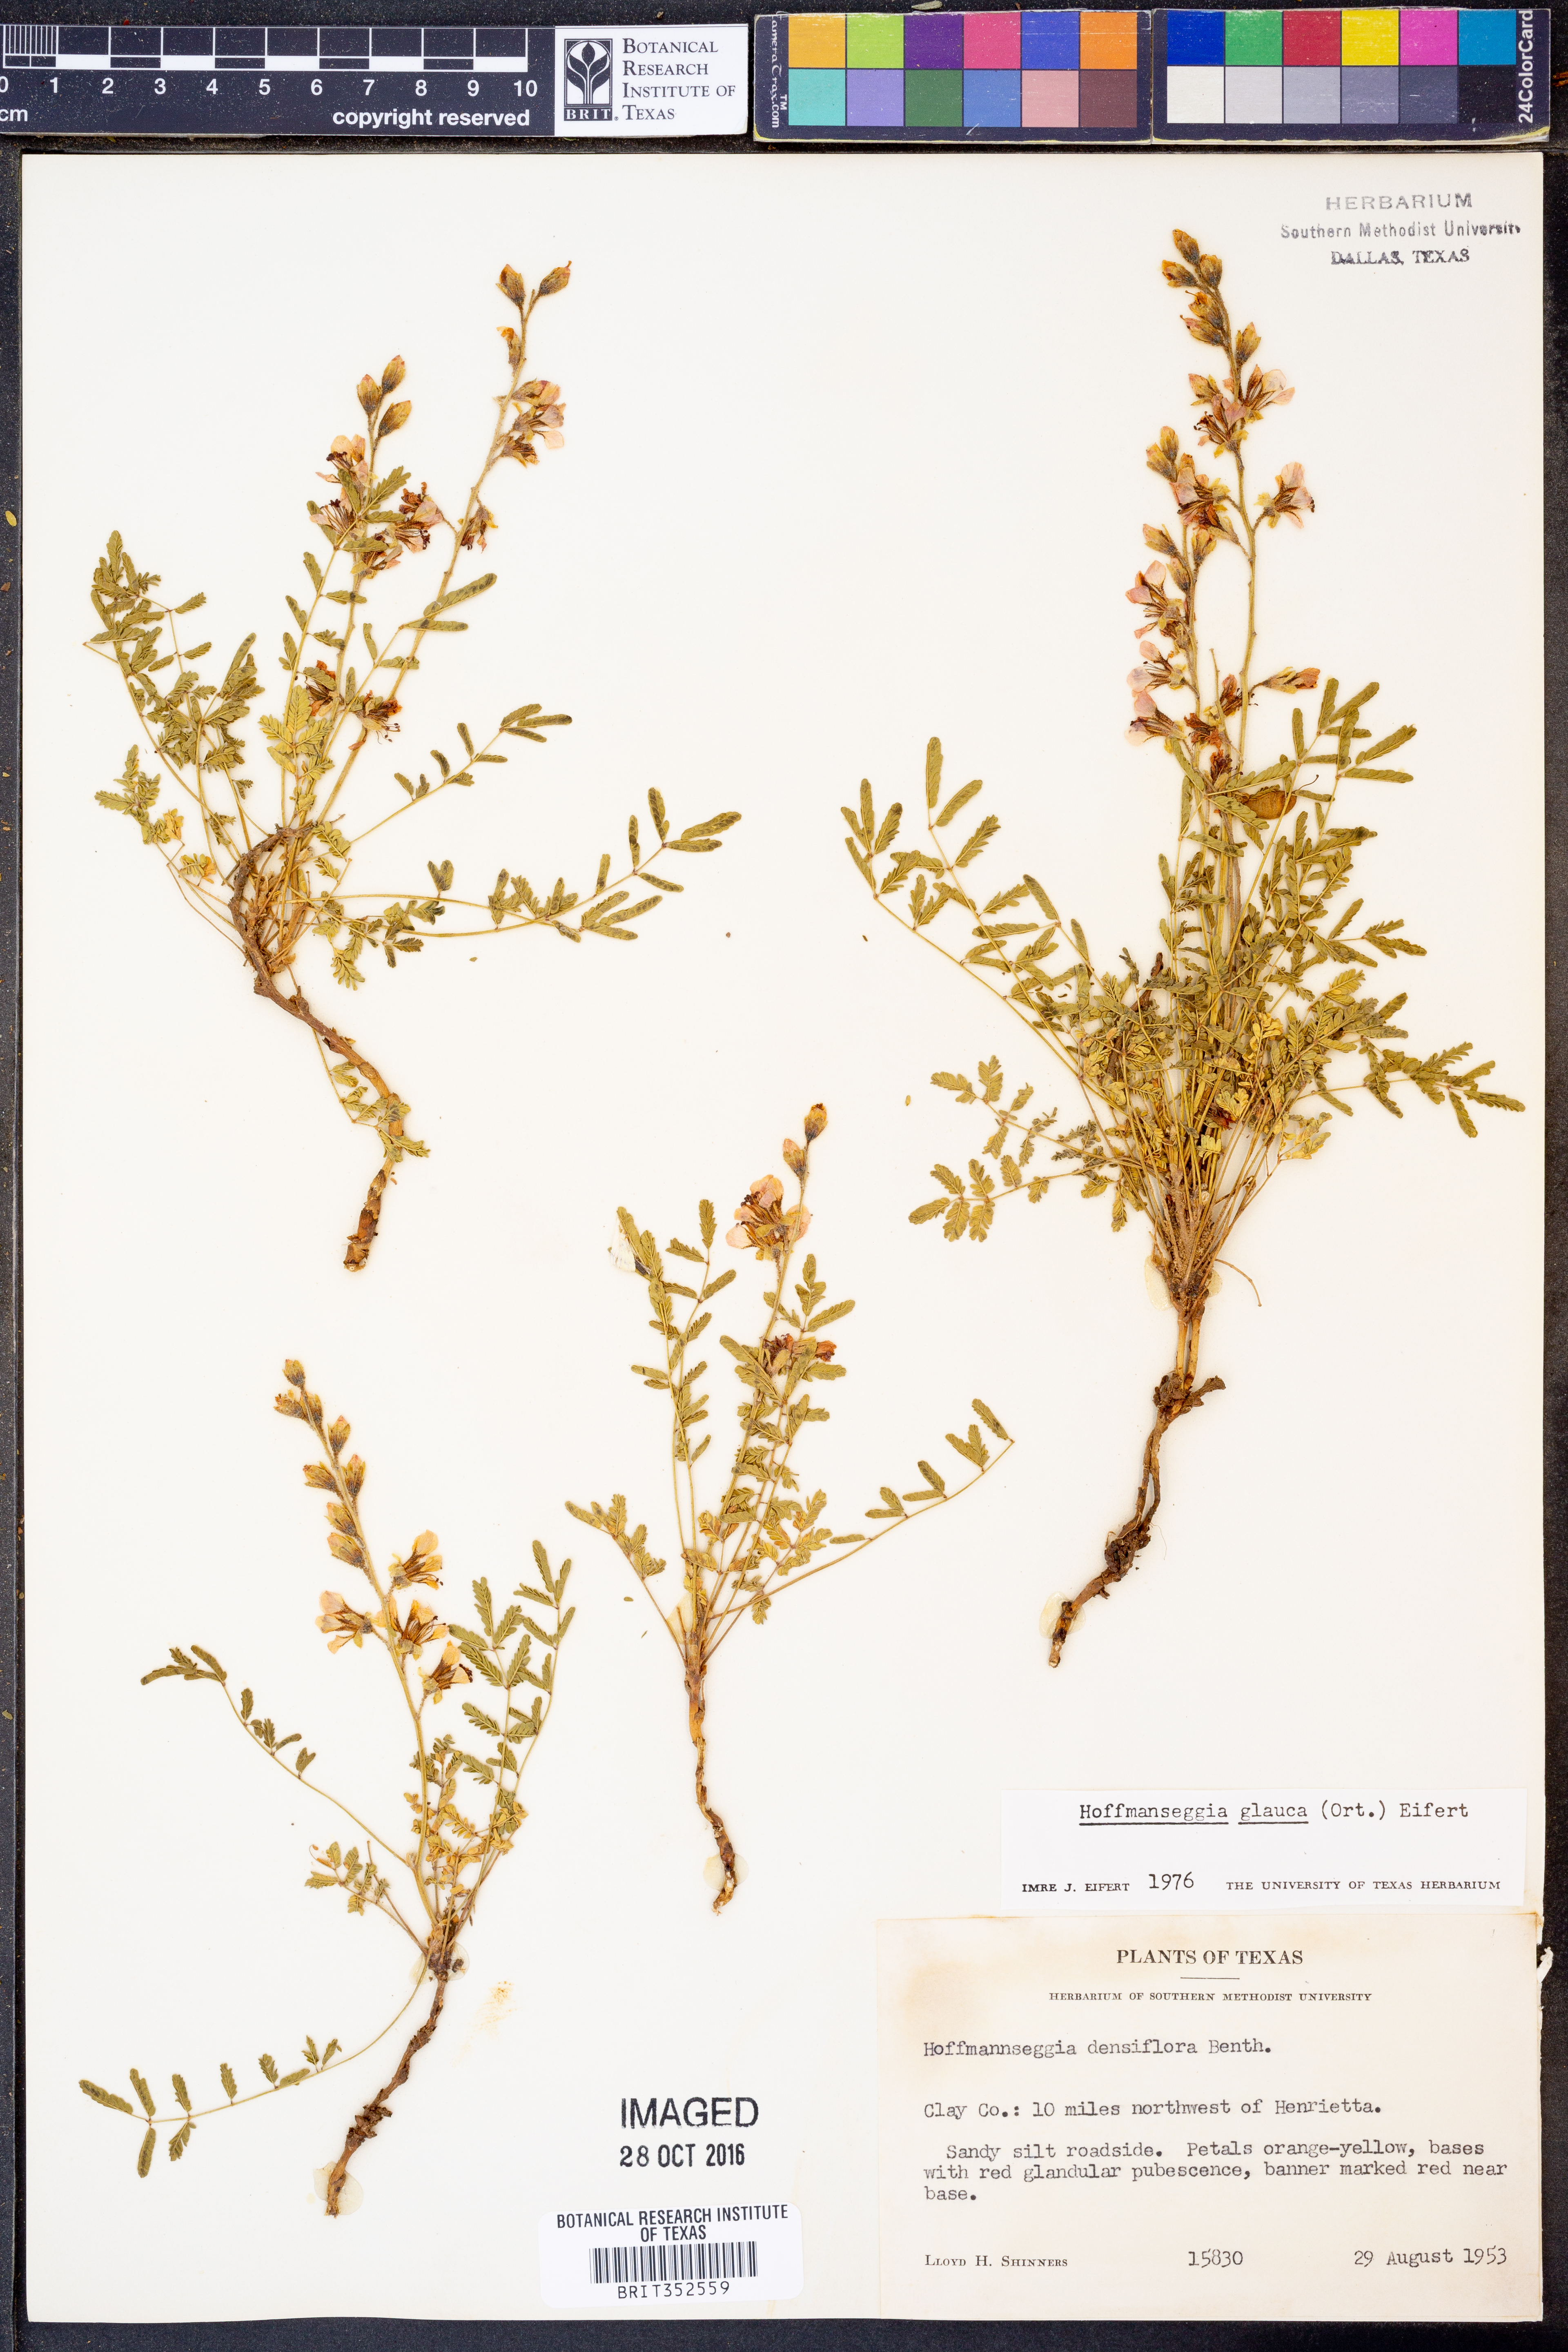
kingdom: Plantae
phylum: Tracheophyta
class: Magnoliopsida
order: Fabales
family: Fabaceae
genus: Hoffmannseggia
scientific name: Hoffmannseggia glauca
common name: Pignut
